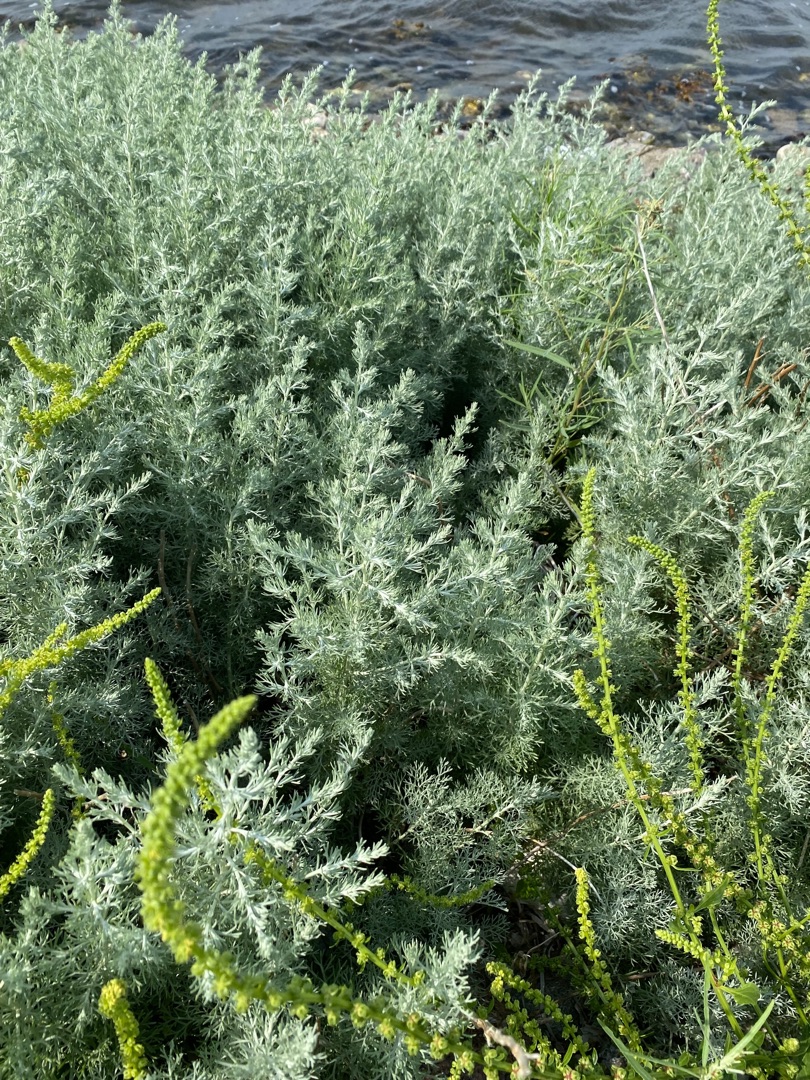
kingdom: Plantae
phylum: Tracheophyta
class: Magnoliopsida
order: Asterales
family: Asteraceae
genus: Artemisia
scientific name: Artemisia maritima
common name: Strandmalurt
